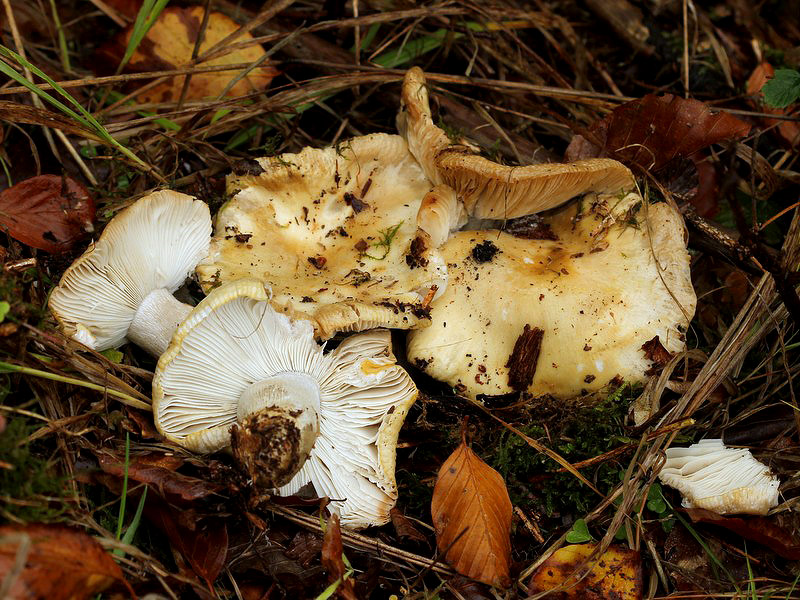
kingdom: Fungi
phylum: Basidiomycota
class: Agaricomycetes
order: Russulales
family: Russulaceae
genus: Russula
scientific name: Russula ochroleuca
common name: okkergul skørhat
